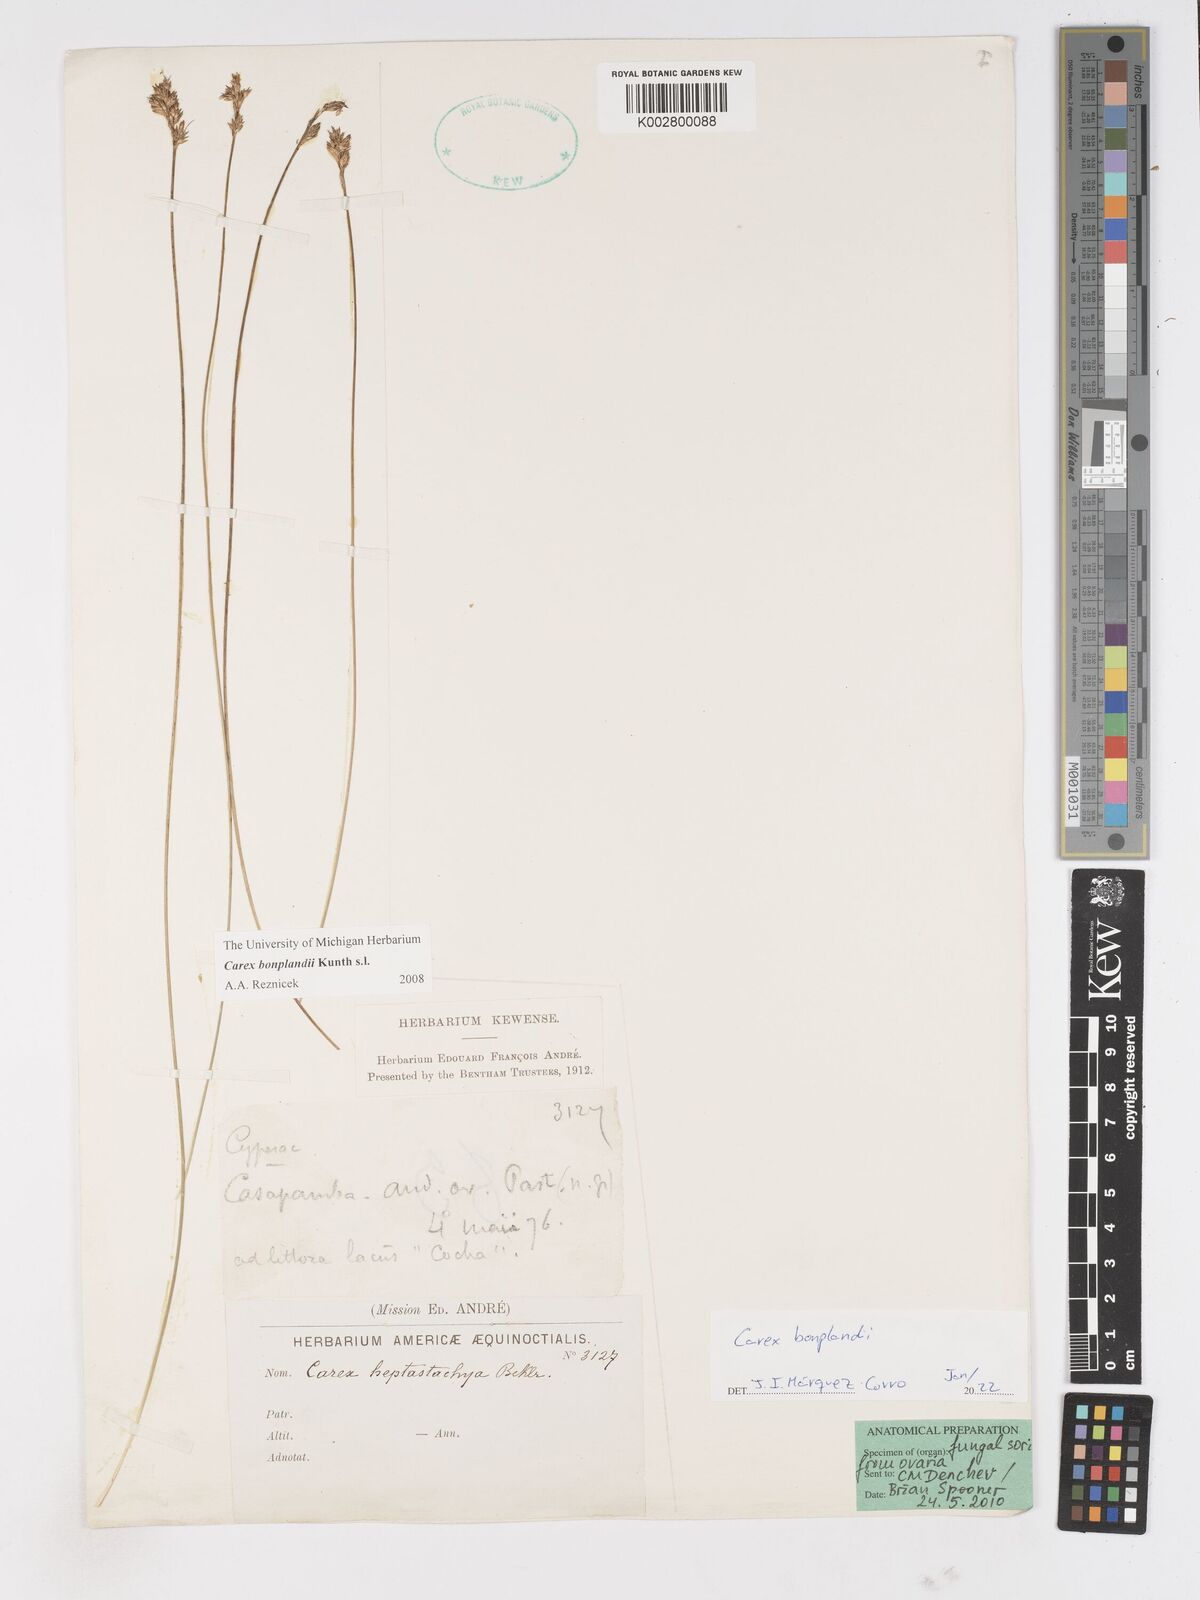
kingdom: Plantae
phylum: Tracheophyta
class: Liliopsida
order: Poales
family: Cyperaceae
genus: Carex
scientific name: Carex bonplandii
